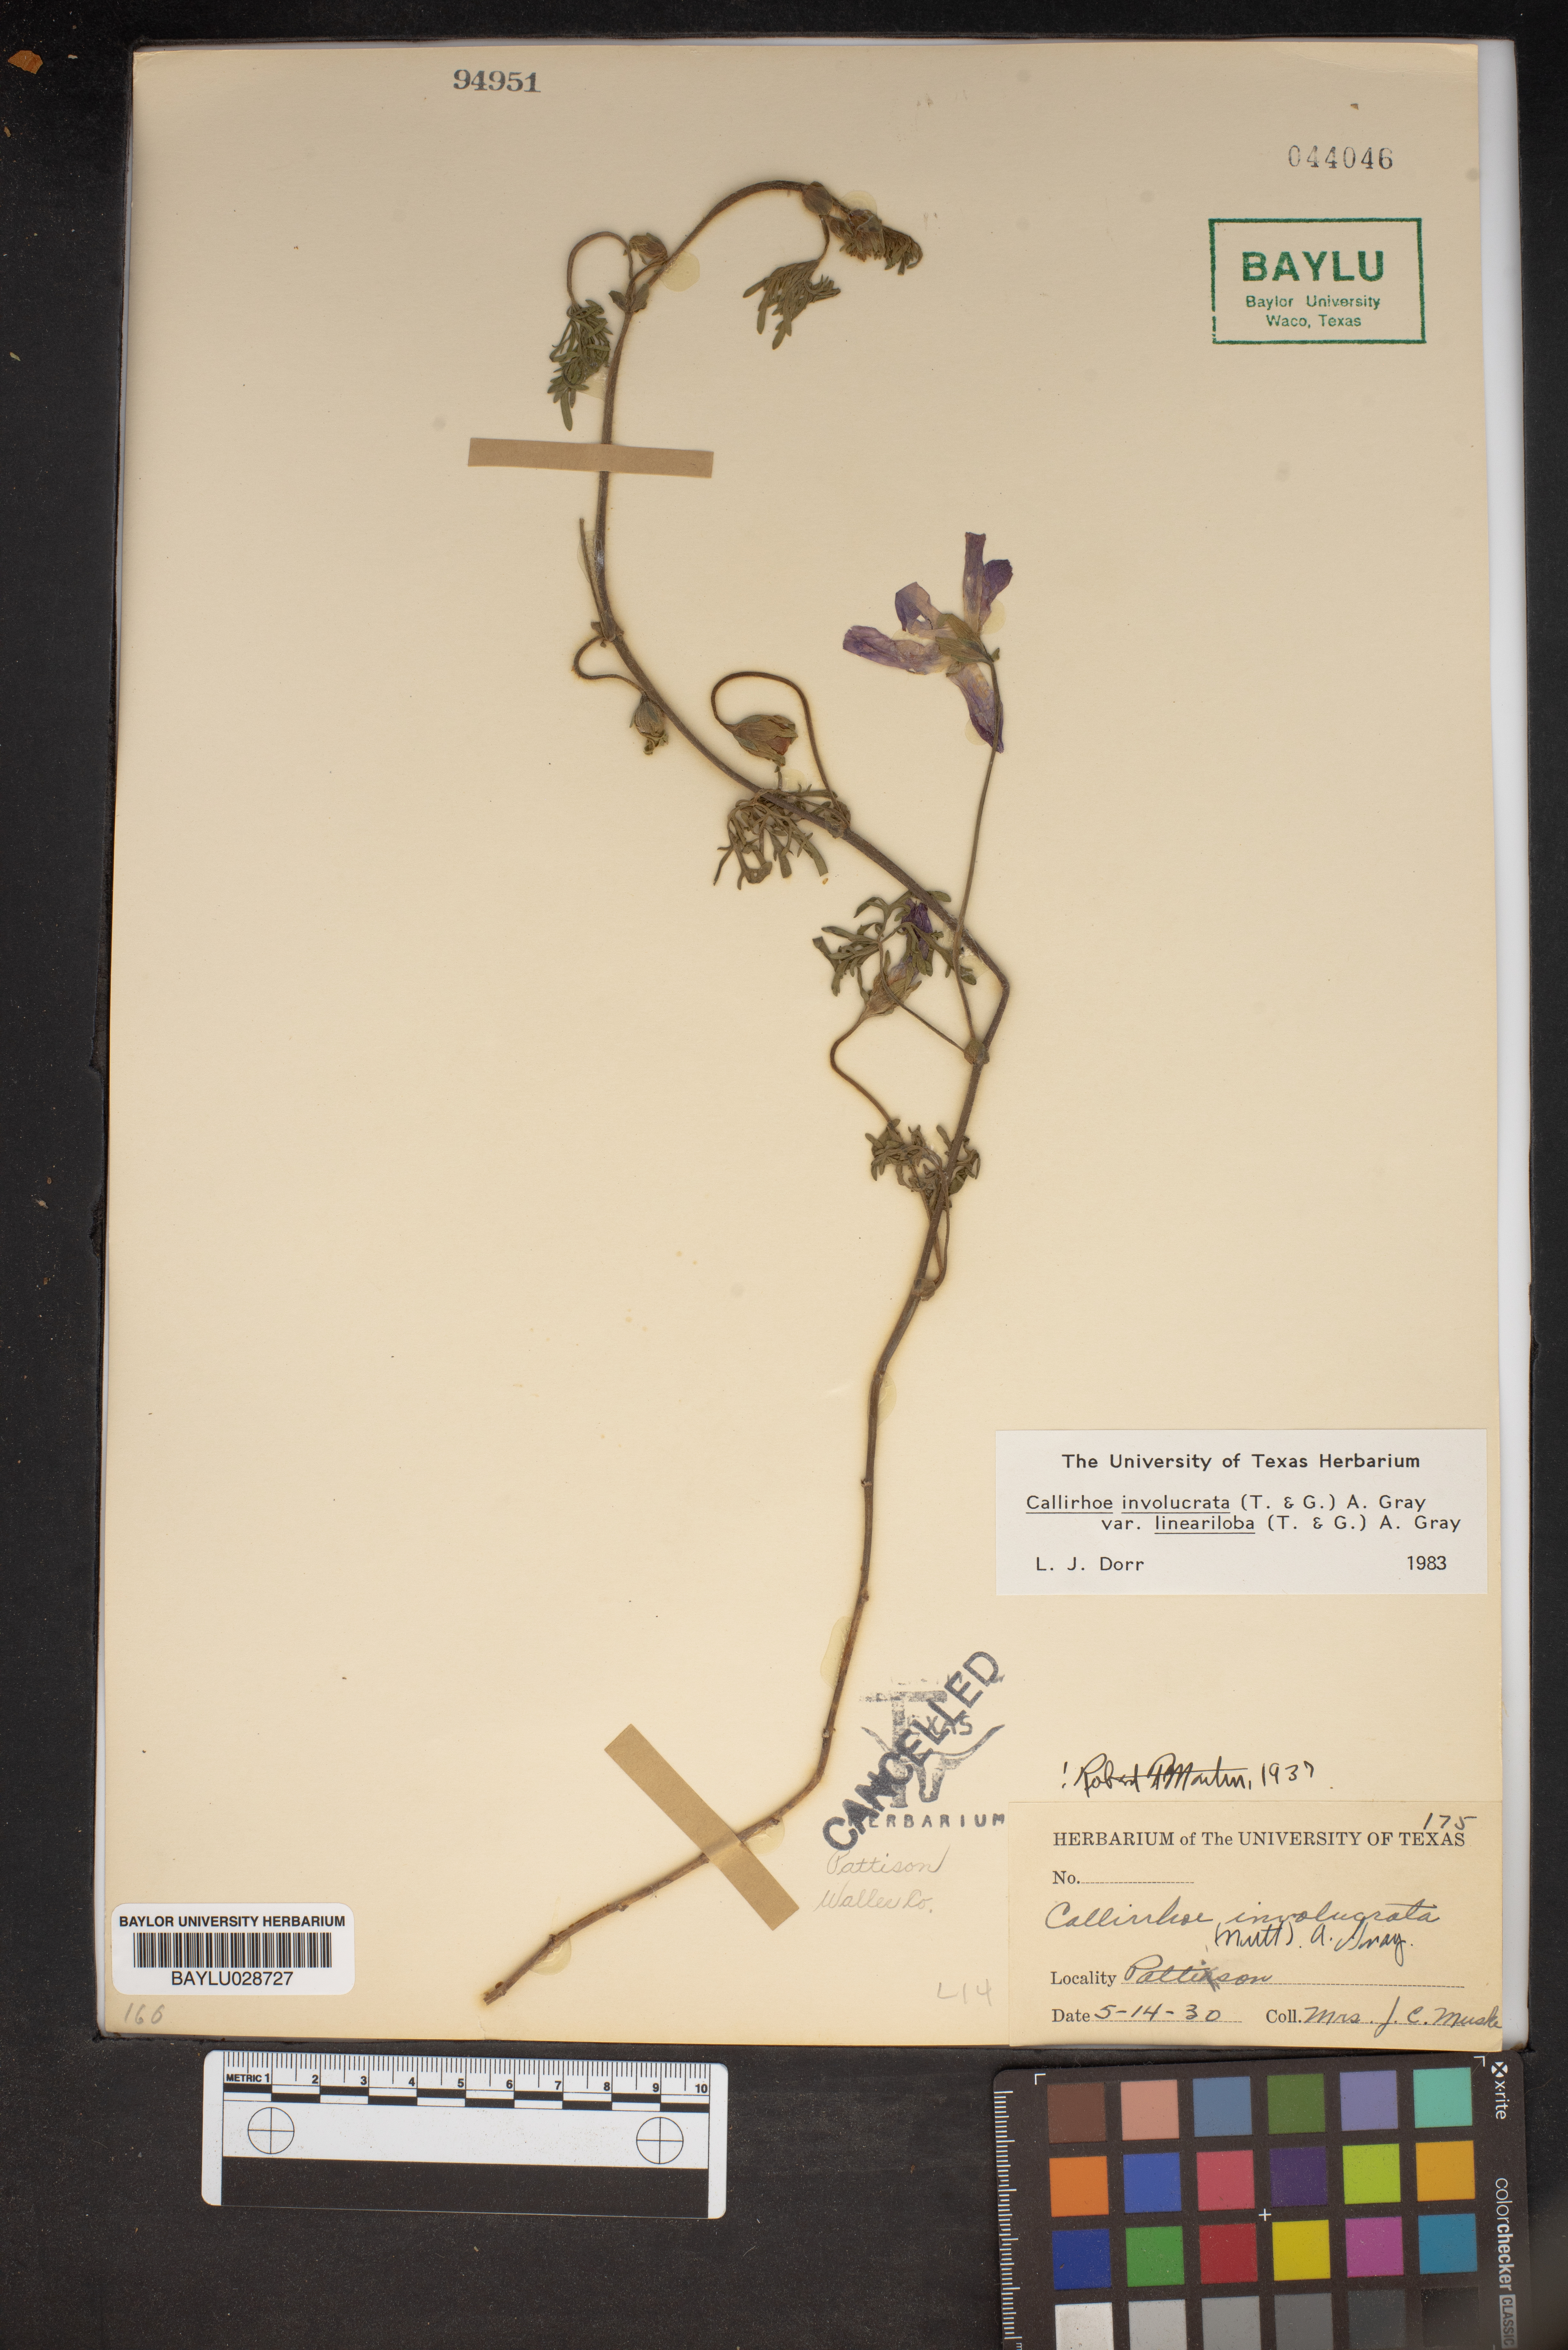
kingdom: Plantae
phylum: Tracheophyta
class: Magnoliopsida
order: Malvales
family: Malvaceae
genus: Callirhoe
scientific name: Callirhoe involucrata
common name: Purple poppy-mallow
